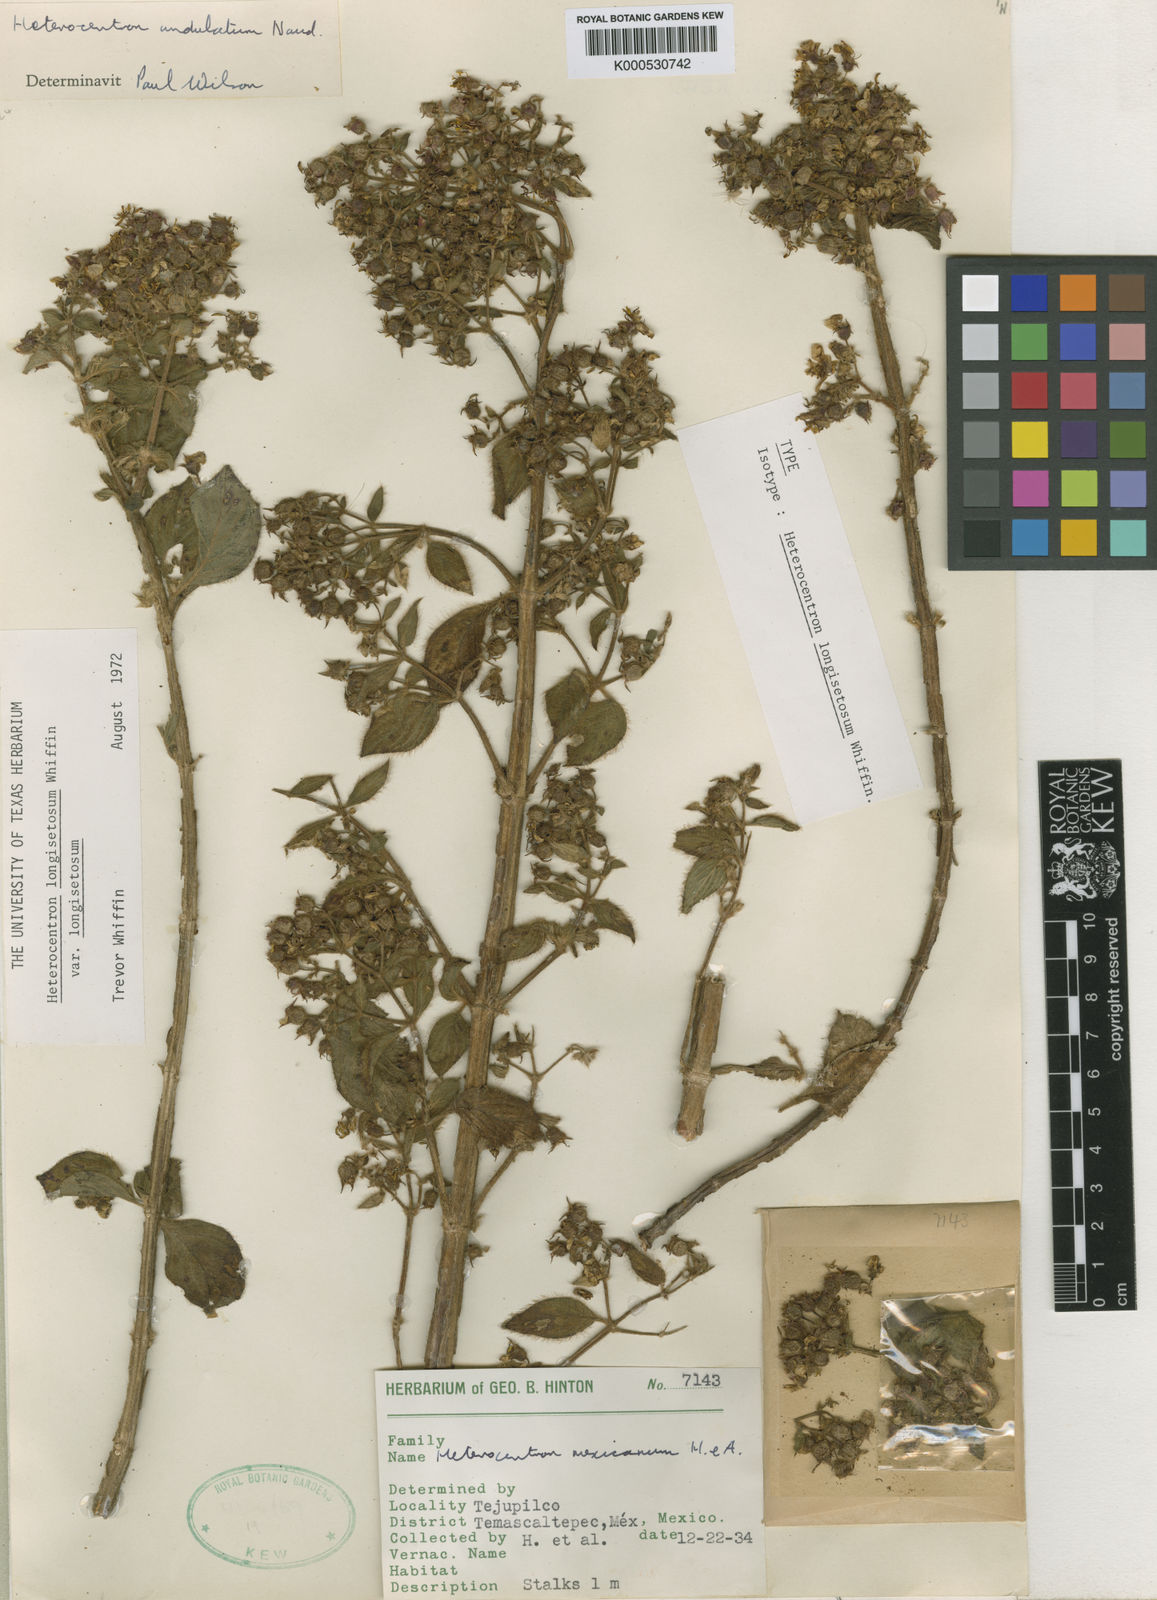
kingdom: Plantae
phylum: Tracheophyta
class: Magnoliopsida
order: Myrtales
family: Melastomataceae
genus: Heterocentron
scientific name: Heterocentron
